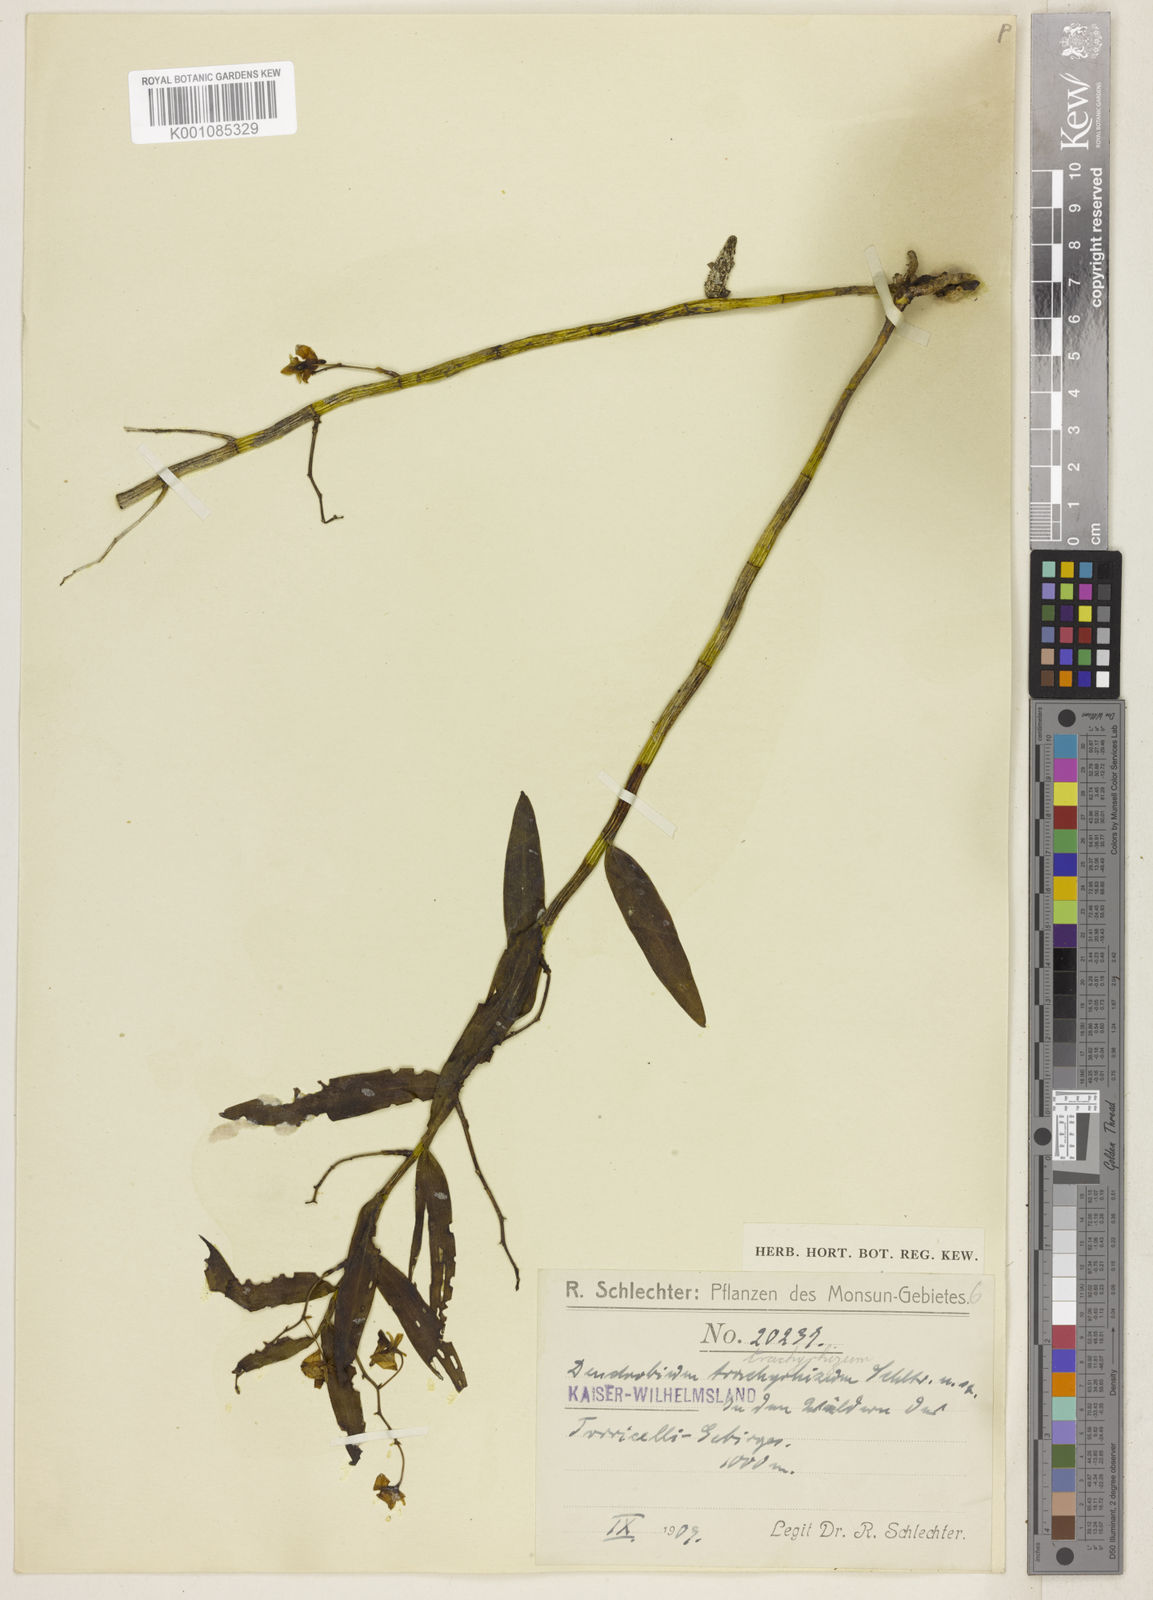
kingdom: Plantae
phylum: Tracheophyta
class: Liliopsida
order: Asparagales
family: Orchidaceae
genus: Dendrobium
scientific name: Dendrobium angustipetalum
